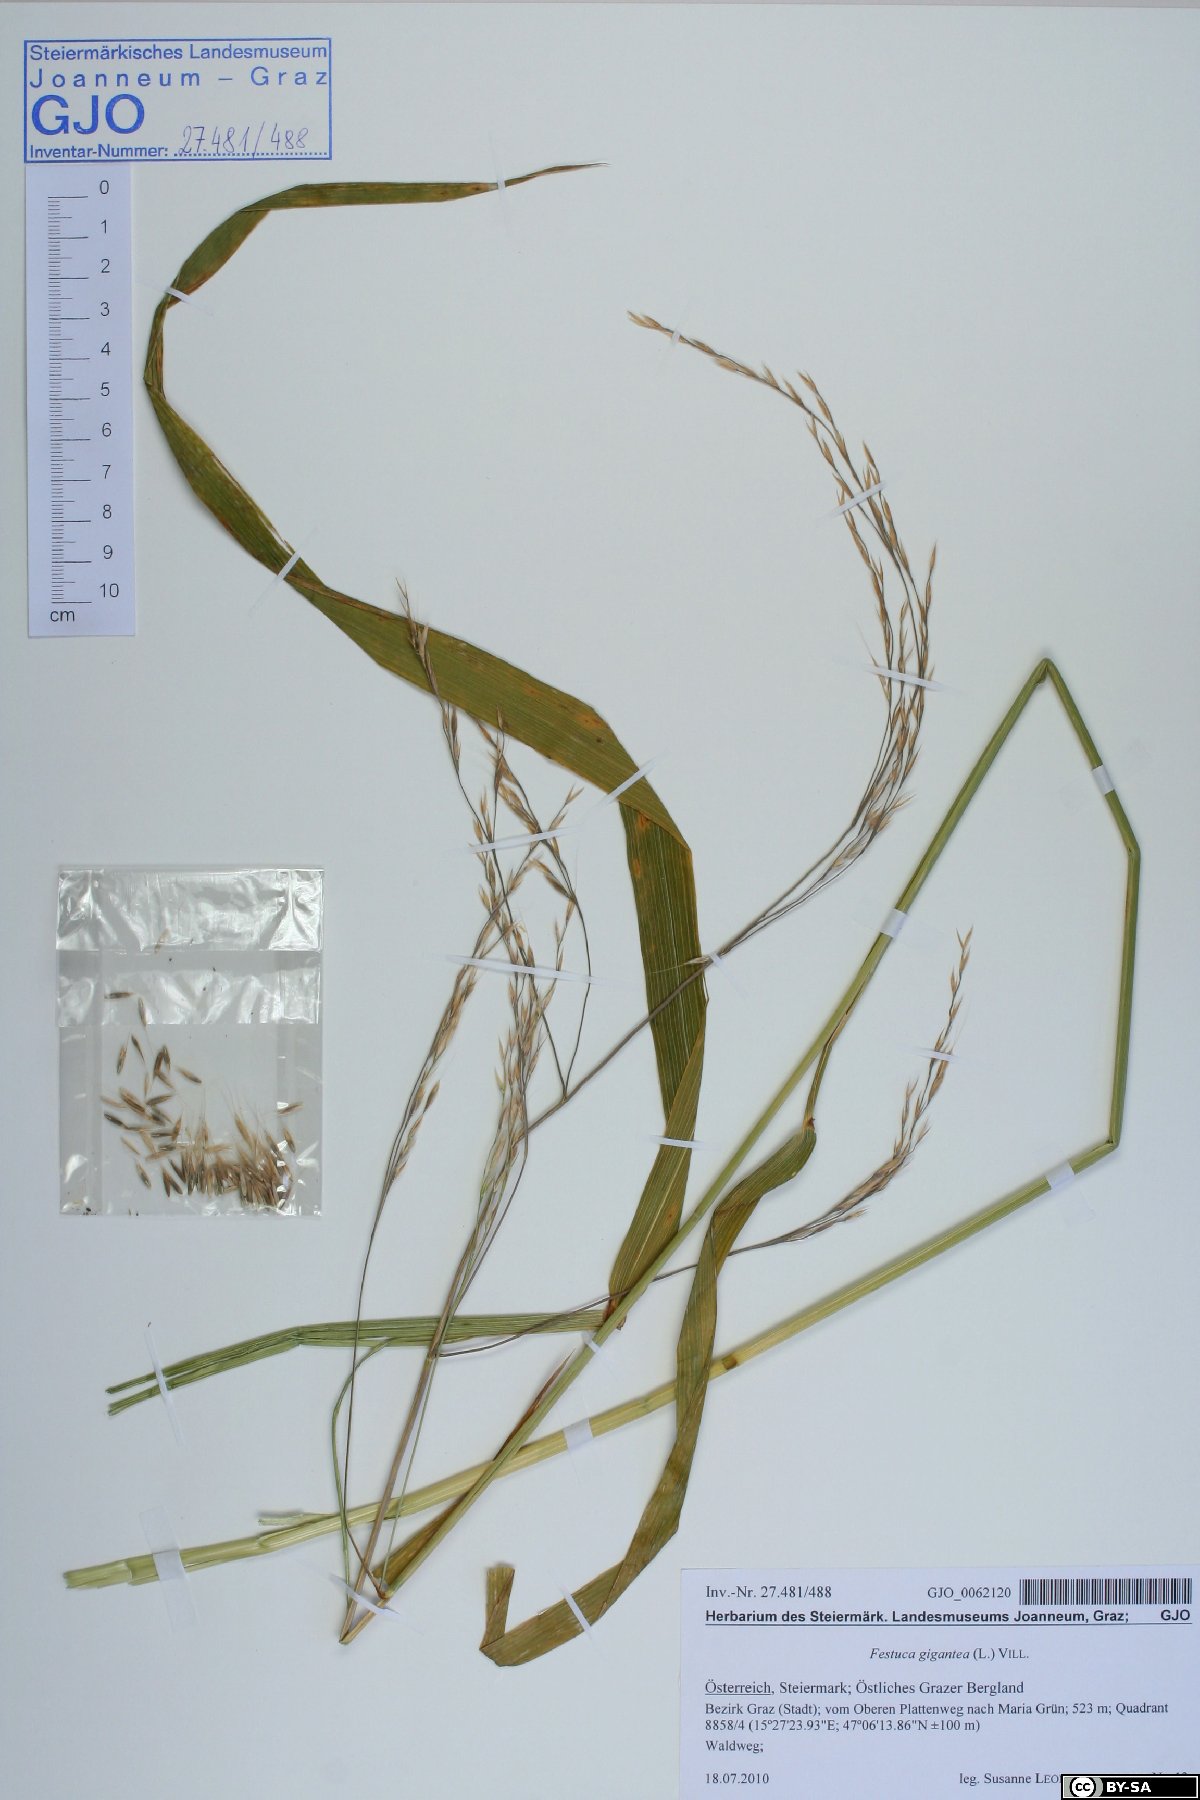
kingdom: Plantae
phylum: Tracheophyta
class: Liliopsida
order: Poales
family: Poaceae
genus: Lolium
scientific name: Lolium giganteum
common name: Giant fescue
